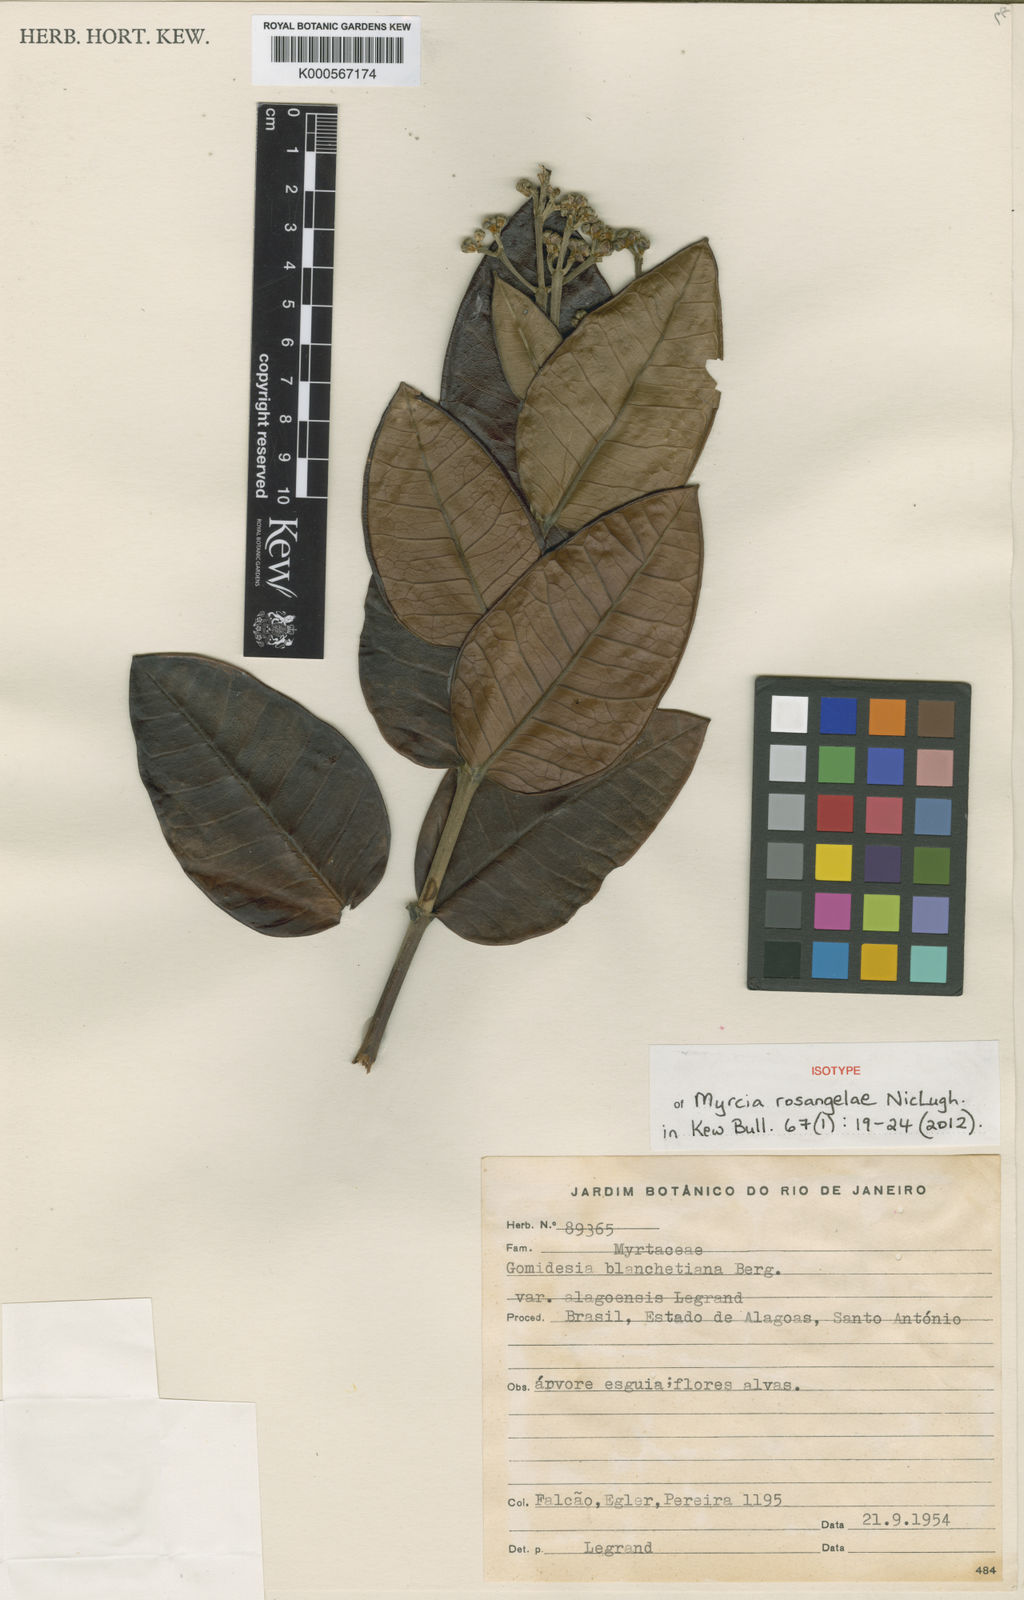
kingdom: Plantae
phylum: Tracheophyta
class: Magnoliopsida
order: Myrtales
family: Myrtaceae
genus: Myrcia
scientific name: Myrcia rosangelae
